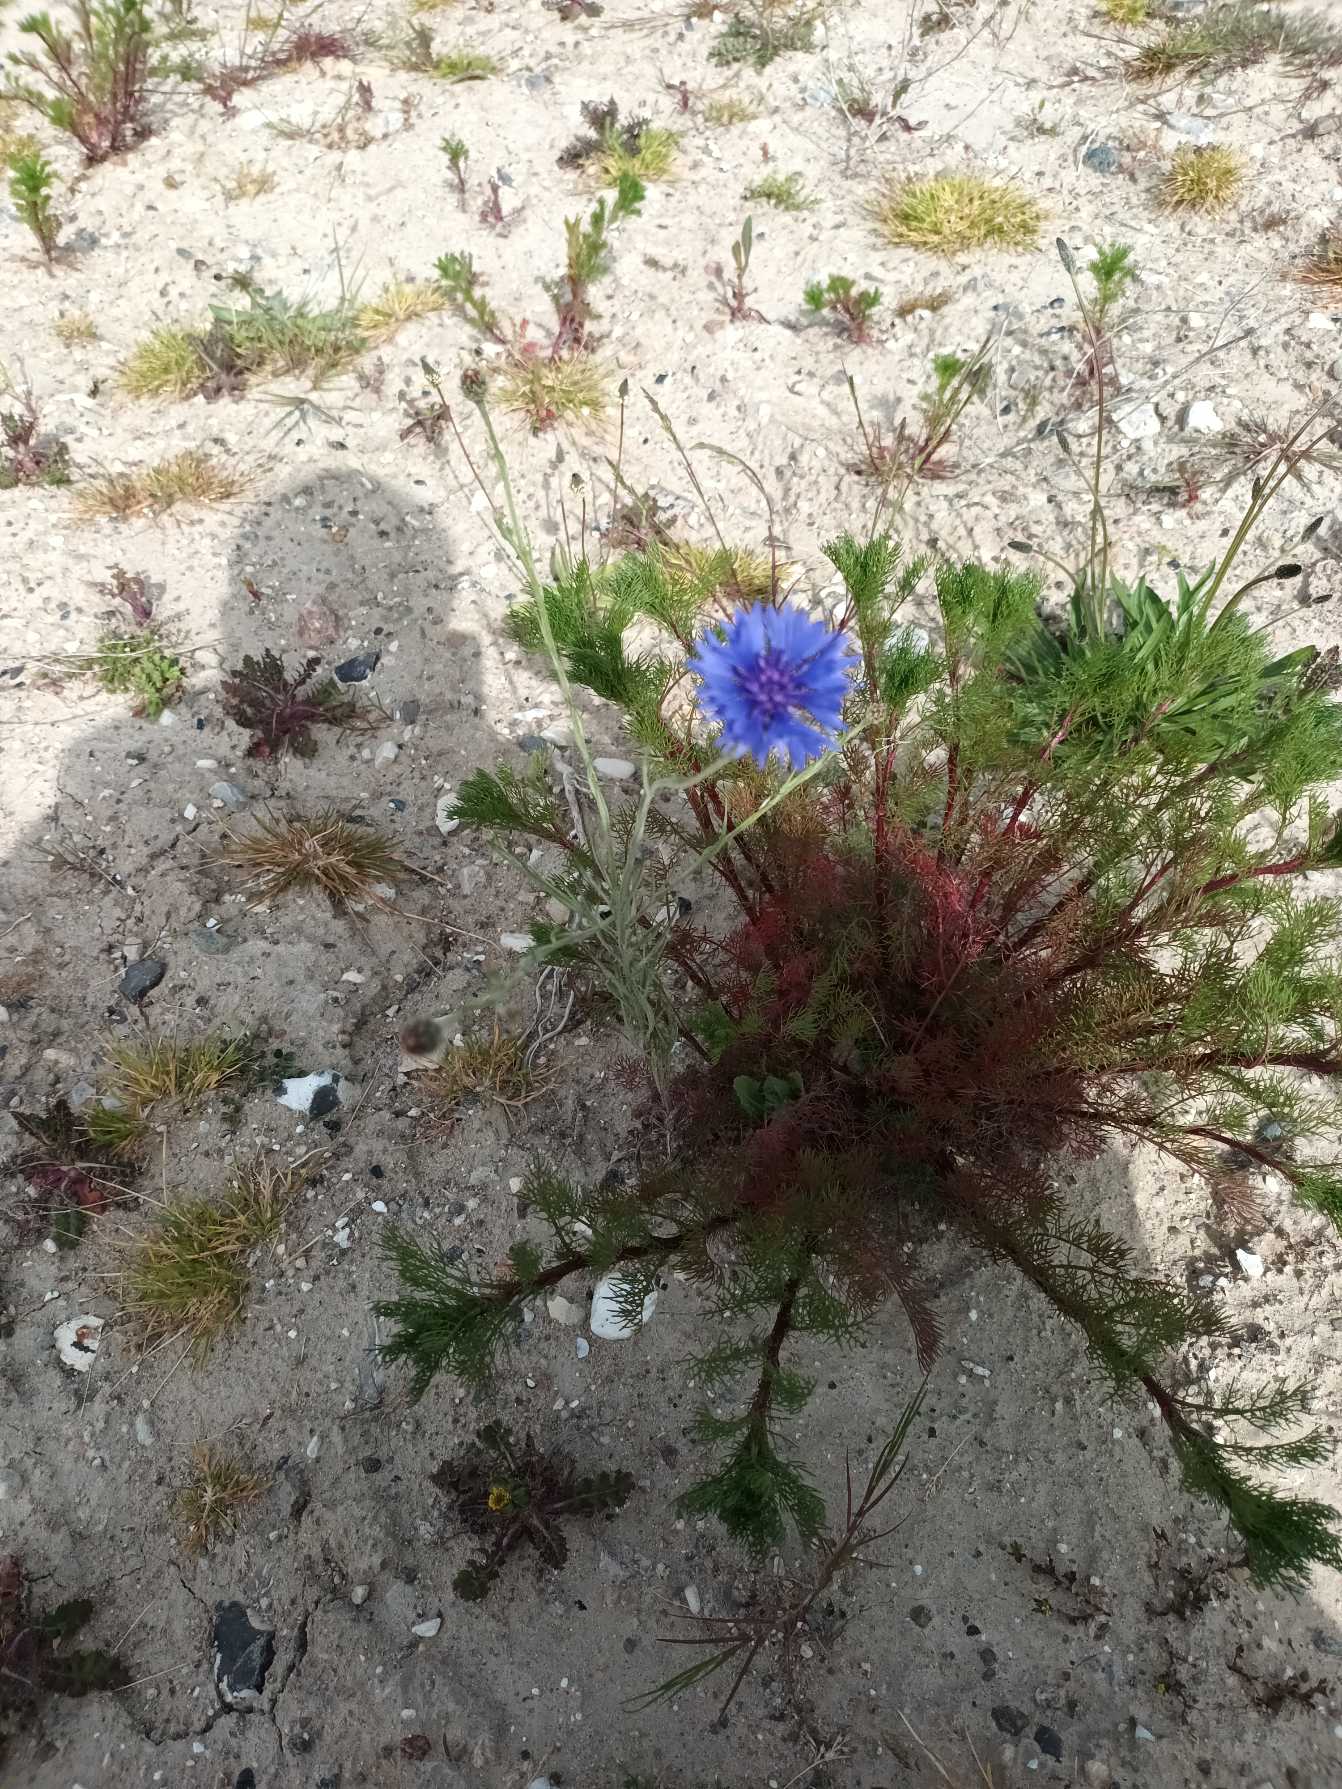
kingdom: Plantae
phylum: Tracheophyta
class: Magnoliopsida
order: Asterales
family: Asteraceae
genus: Centaurea
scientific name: Centaurea cyanus
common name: Kornblomst
